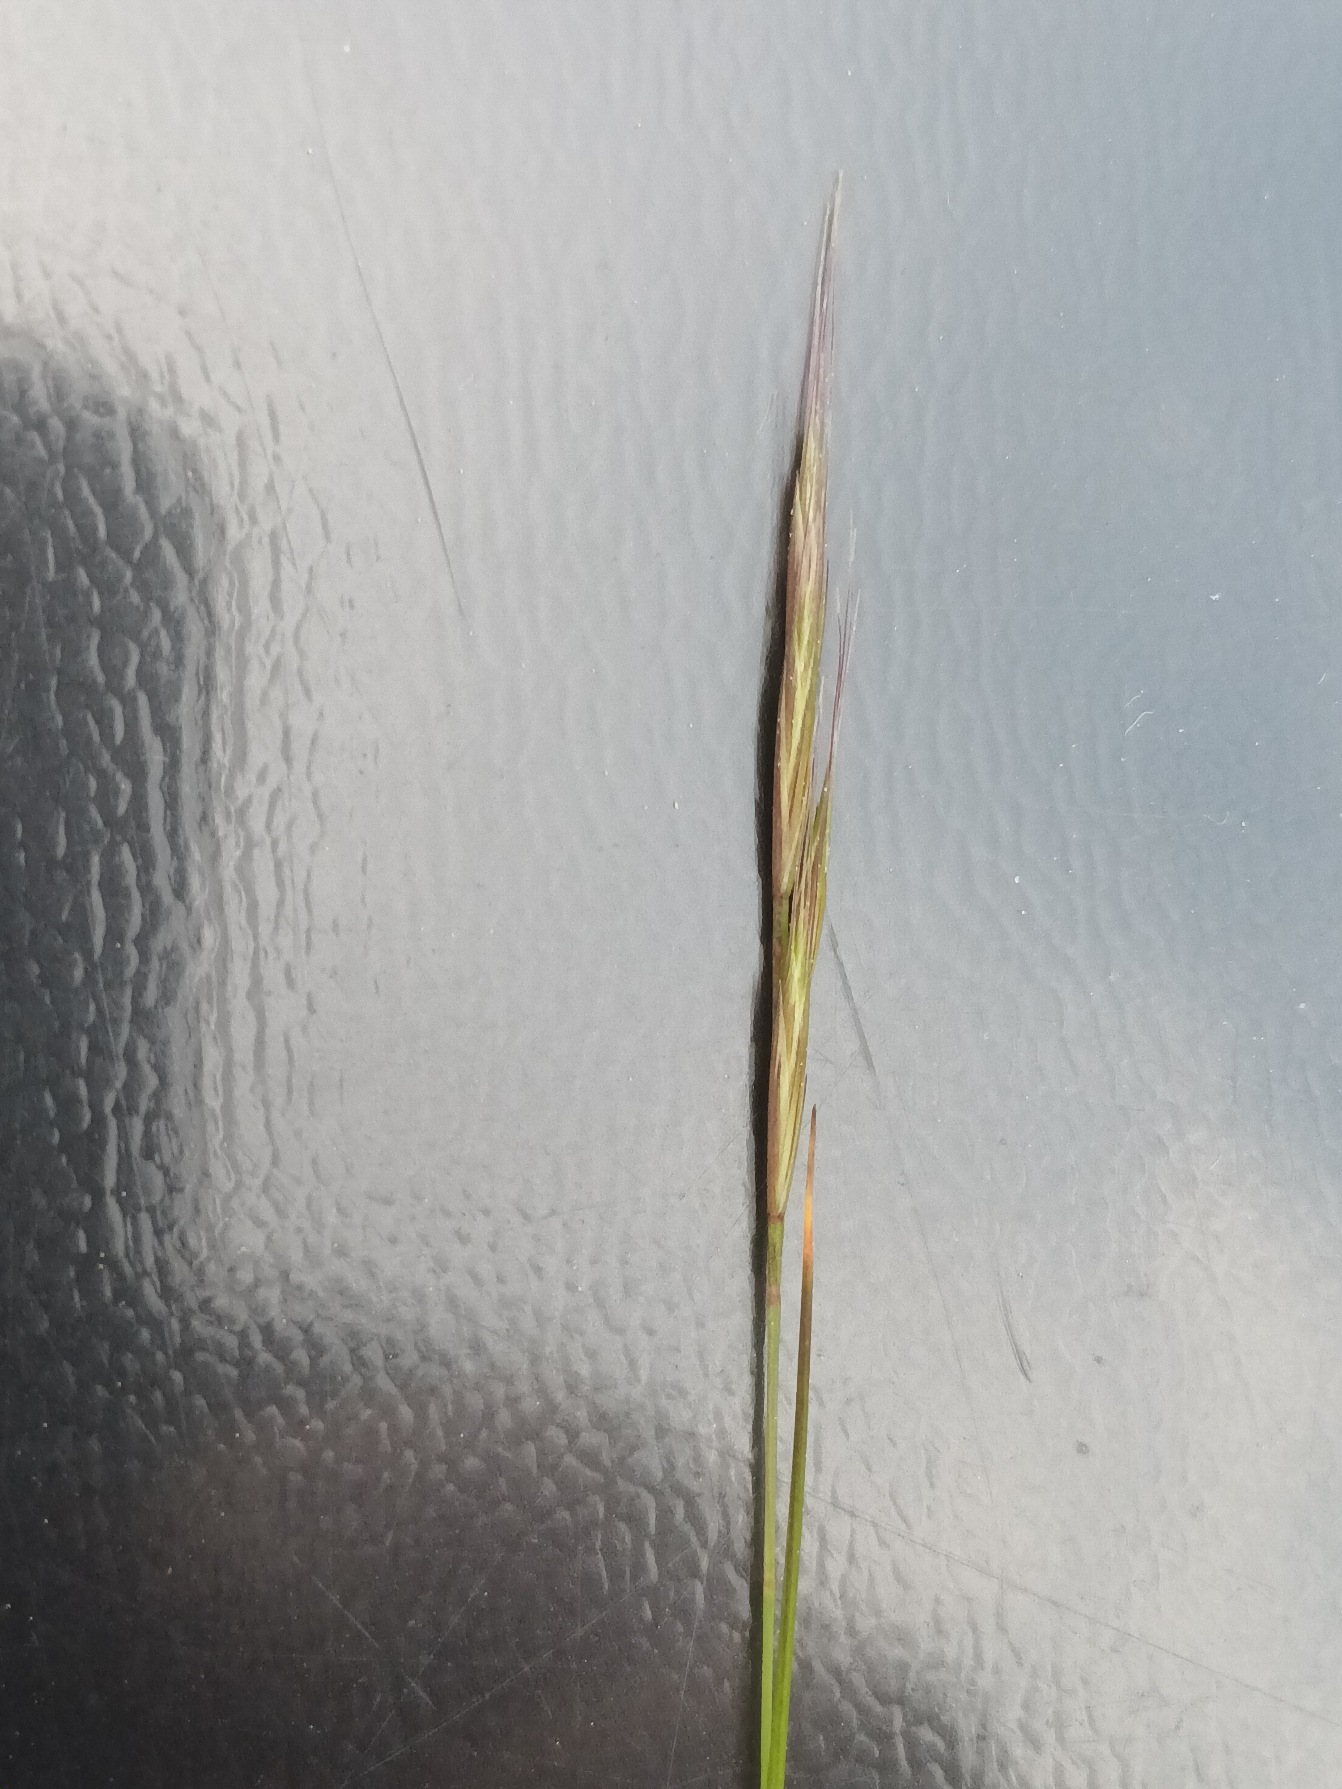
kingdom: Plantae
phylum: Tracheophyta
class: Liliopsida
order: Poales
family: Poaceae
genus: Festuca
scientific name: Festuca bromoides
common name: Langstakket væselhale
